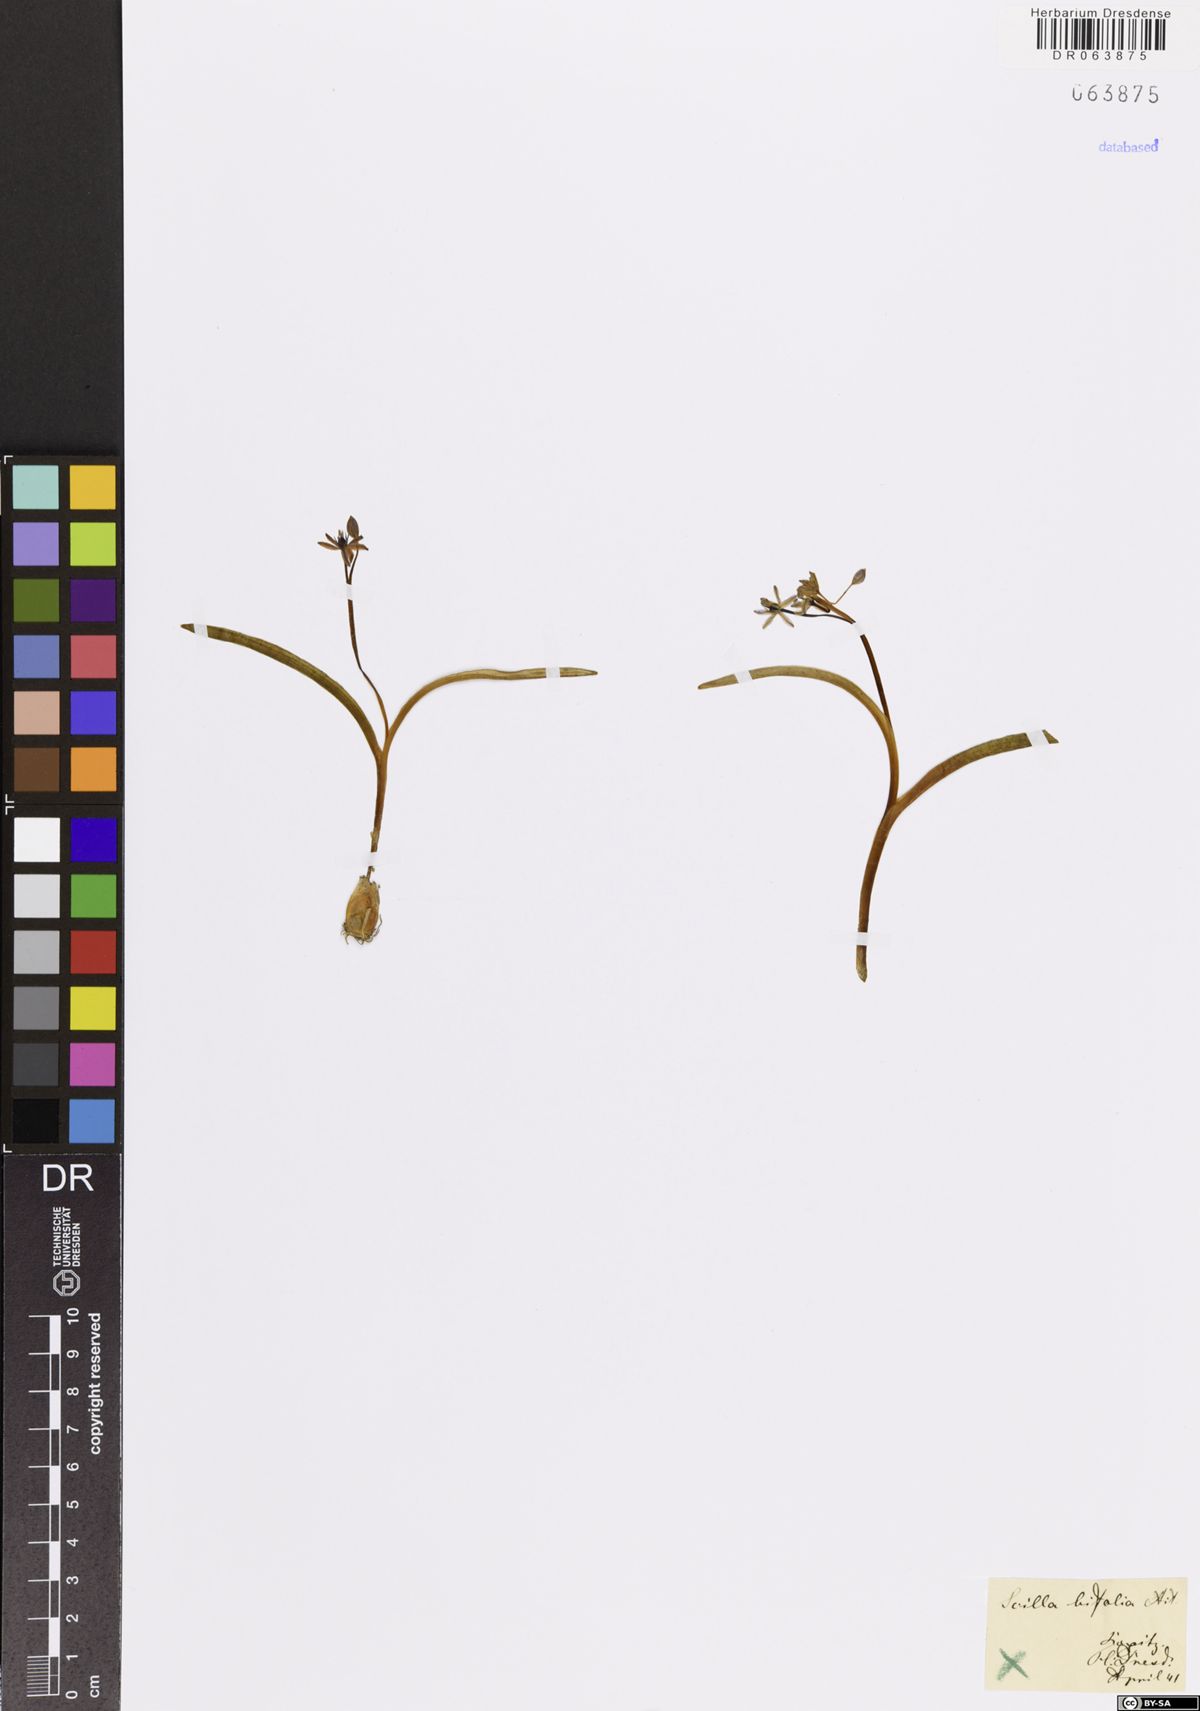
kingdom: Plantae
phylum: Tracheophyta
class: Liliopsida
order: Asparagales
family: Asparagaceae
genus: Scilla
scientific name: Scilla bifolia
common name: Alpine squill
